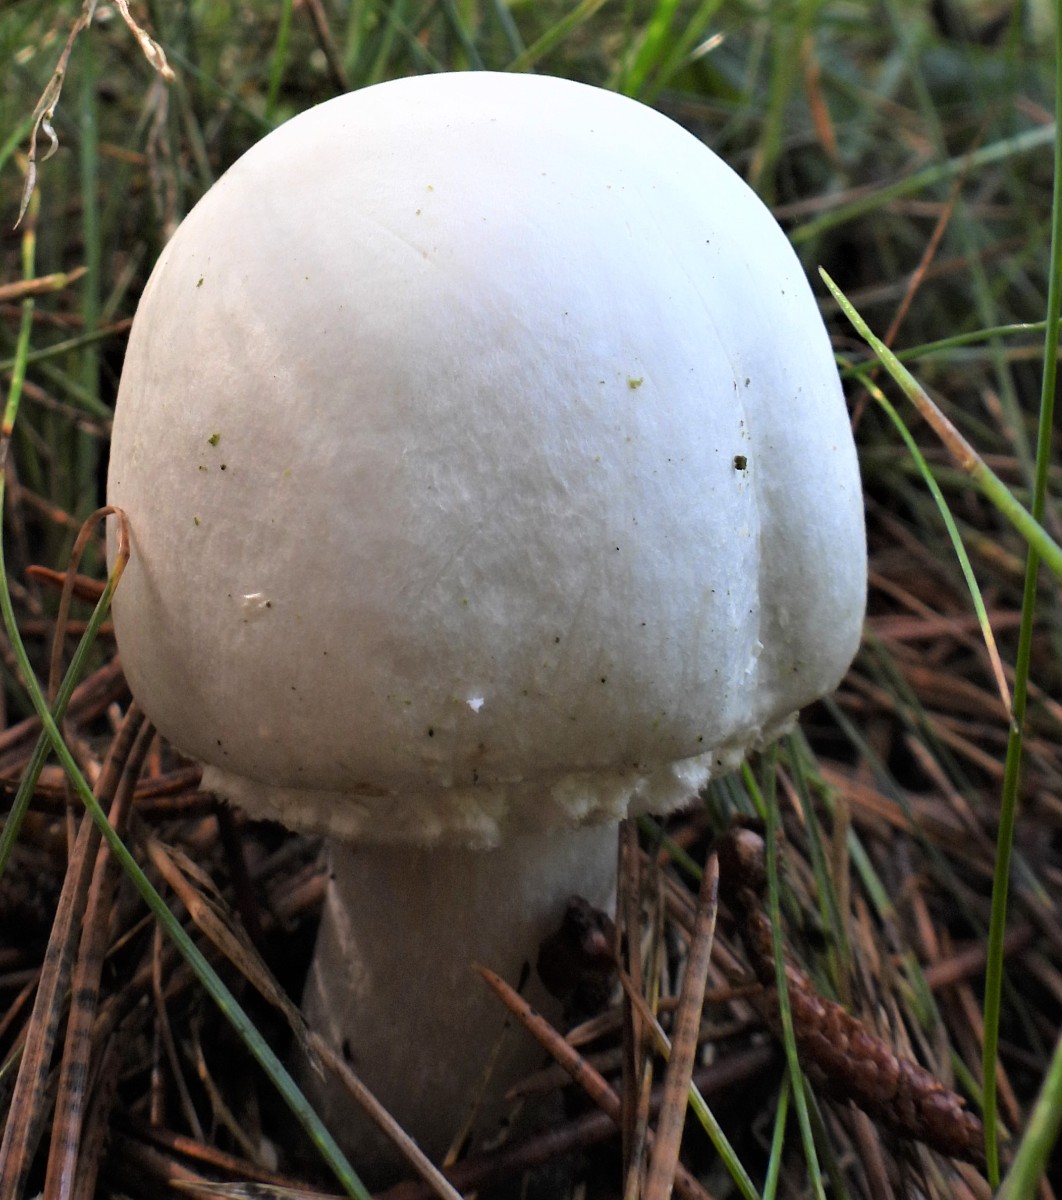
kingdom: Fungi
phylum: Basidiomycota
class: Agaricomycetes
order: Agaricales
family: Agaricaceae
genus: Agaricus
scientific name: Agaricus arvensis
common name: ager-champignon
